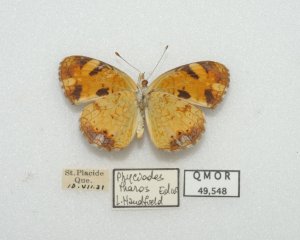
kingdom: Animalia
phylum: Arthropoda
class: Insecta
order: Lepidoptera
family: Nymphalidae
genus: Phyciodes
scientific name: Phyciodes tharos
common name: Northern Crescent
